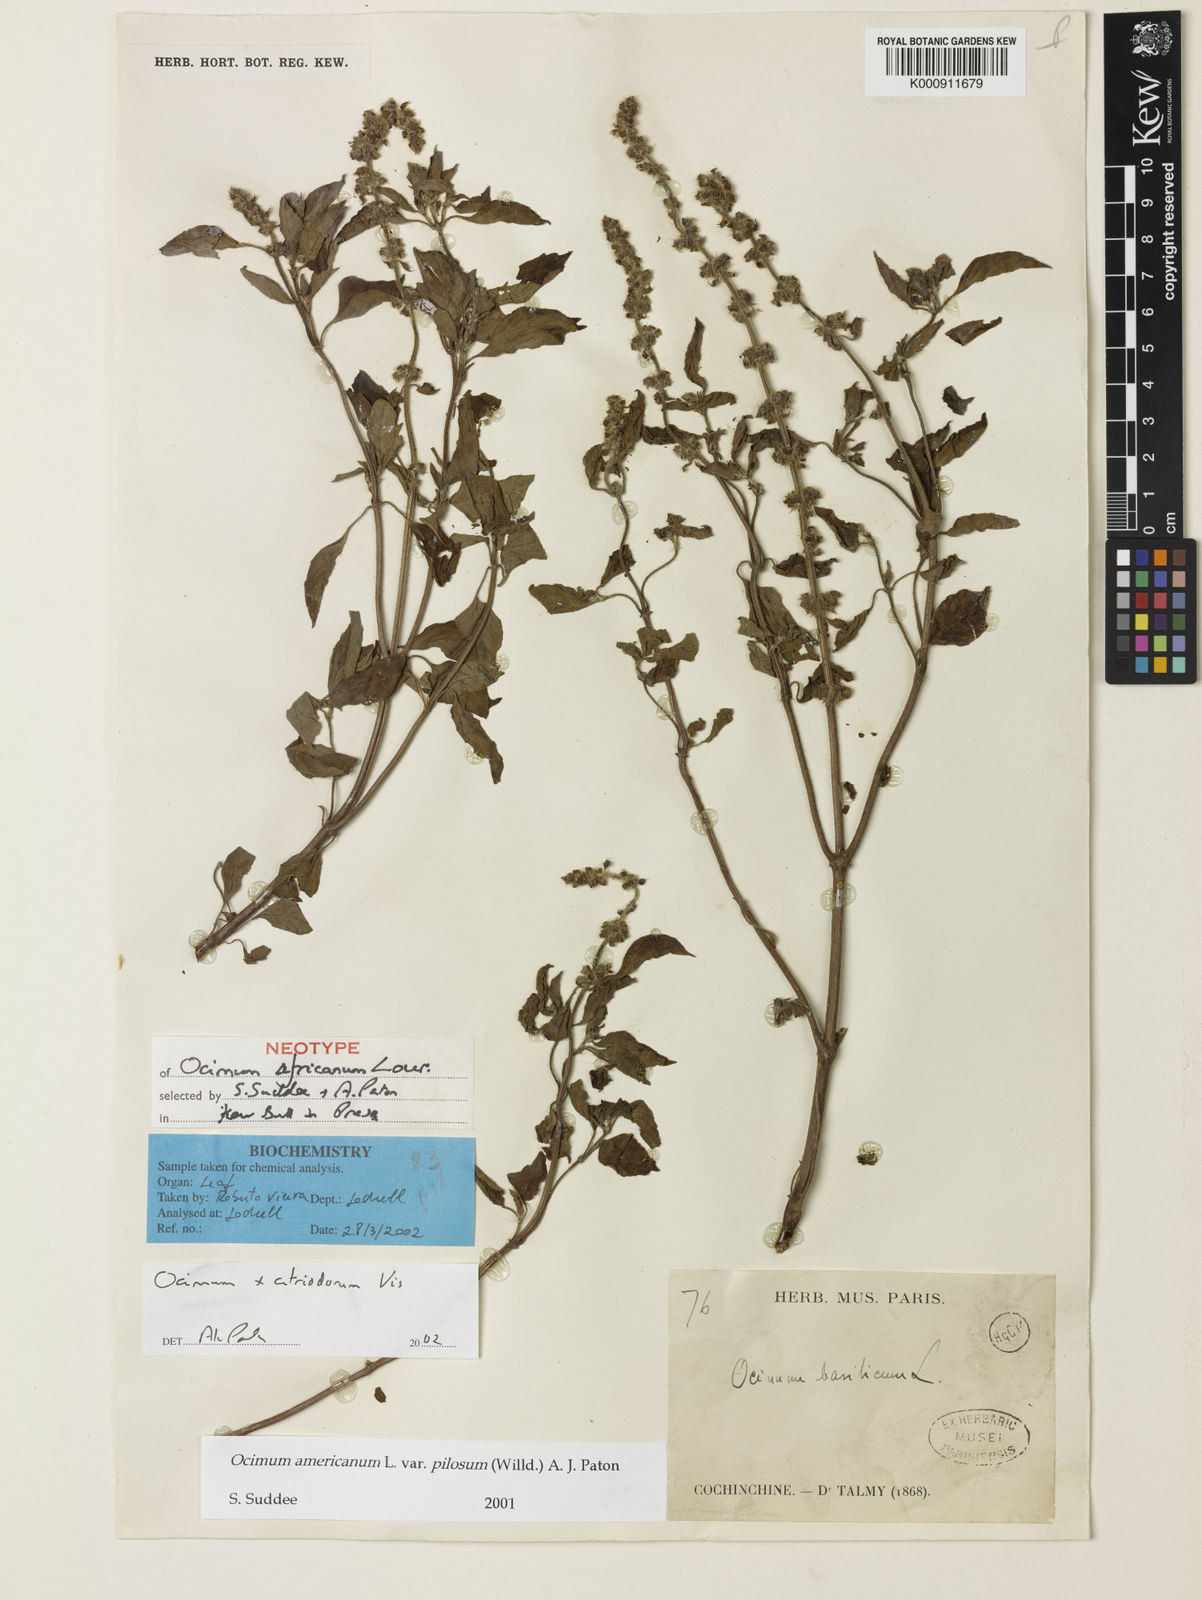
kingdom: Plantae
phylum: Tracheophyta
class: Magnoliopsida
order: Lamiales
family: Lamiaceae
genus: Ocimum
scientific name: Ocimum africanum
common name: Hoary basil
